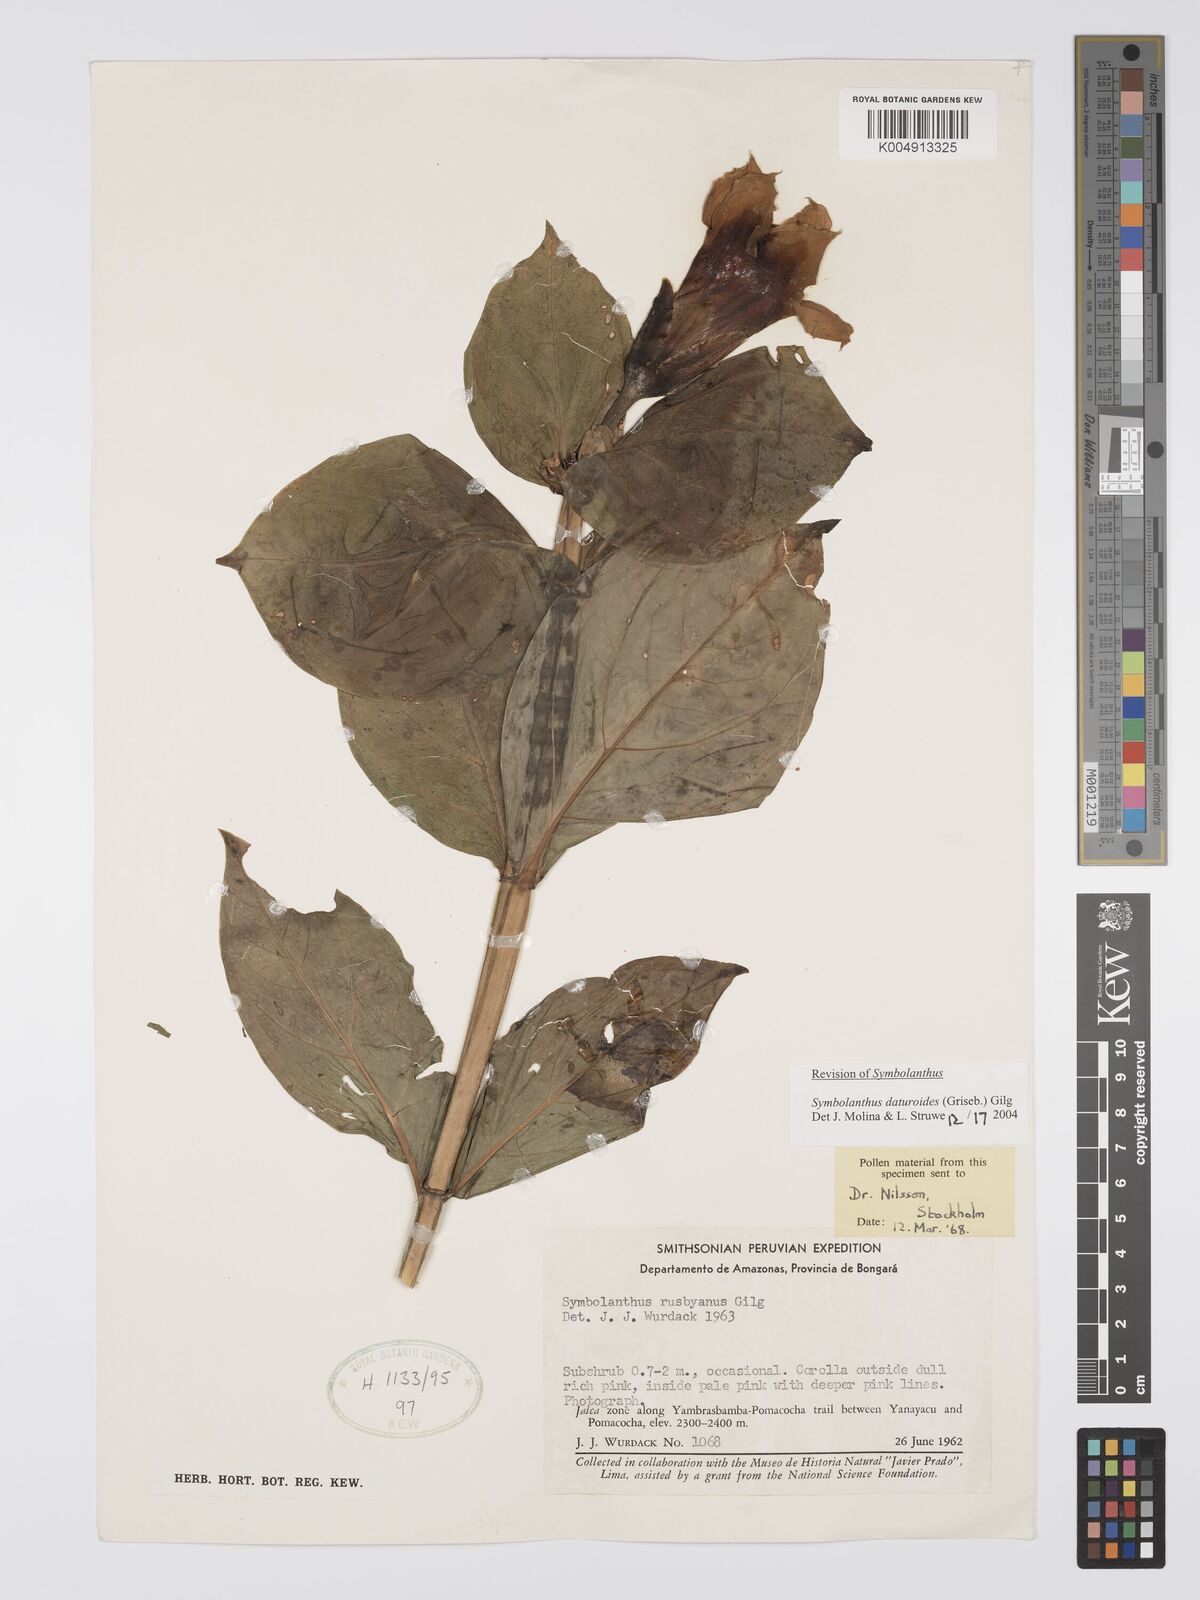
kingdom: Plantae
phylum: Tracheophyta
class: Magnoliopsida
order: Gentianales
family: Gentianaceae
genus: Symbolanthus
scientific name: Symbolanthus daturoides
